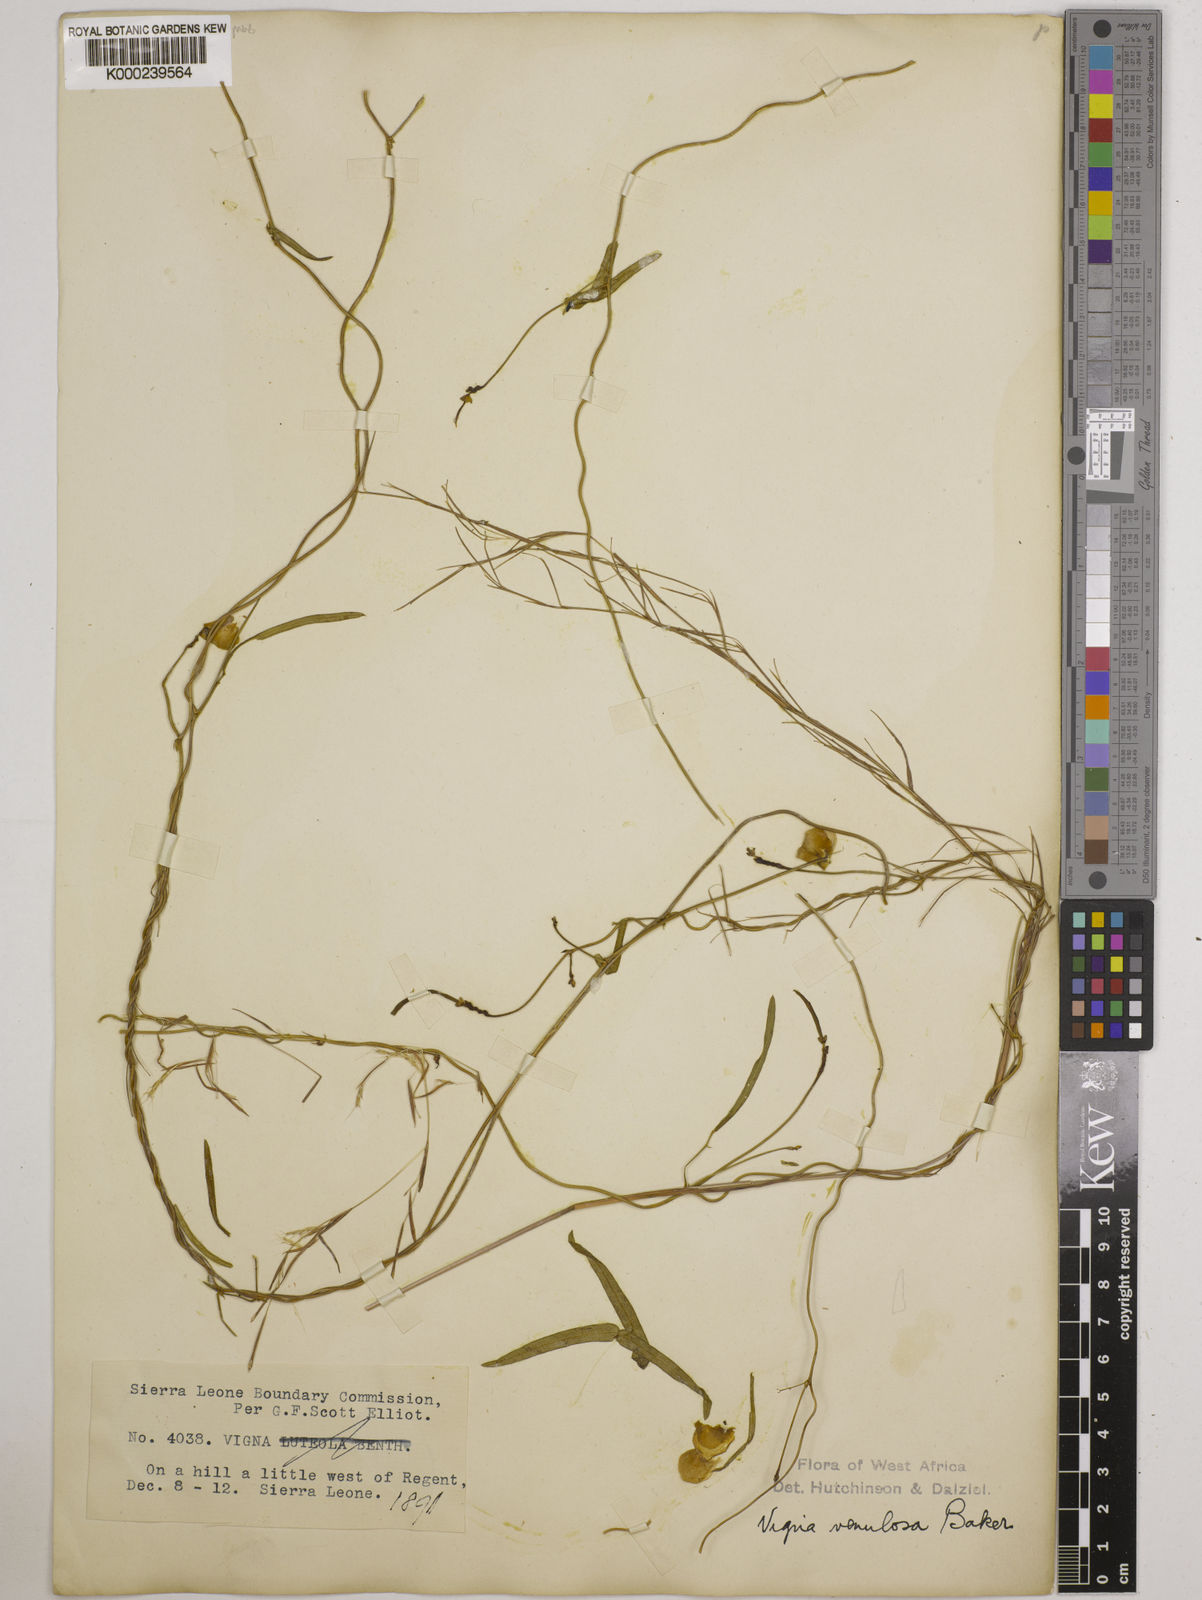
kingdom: Plantae
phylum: Tracheophyta
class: Magnoliopsida
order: Fabales
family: Fabaceae
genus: Vigna
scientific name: Vigna venulosa
